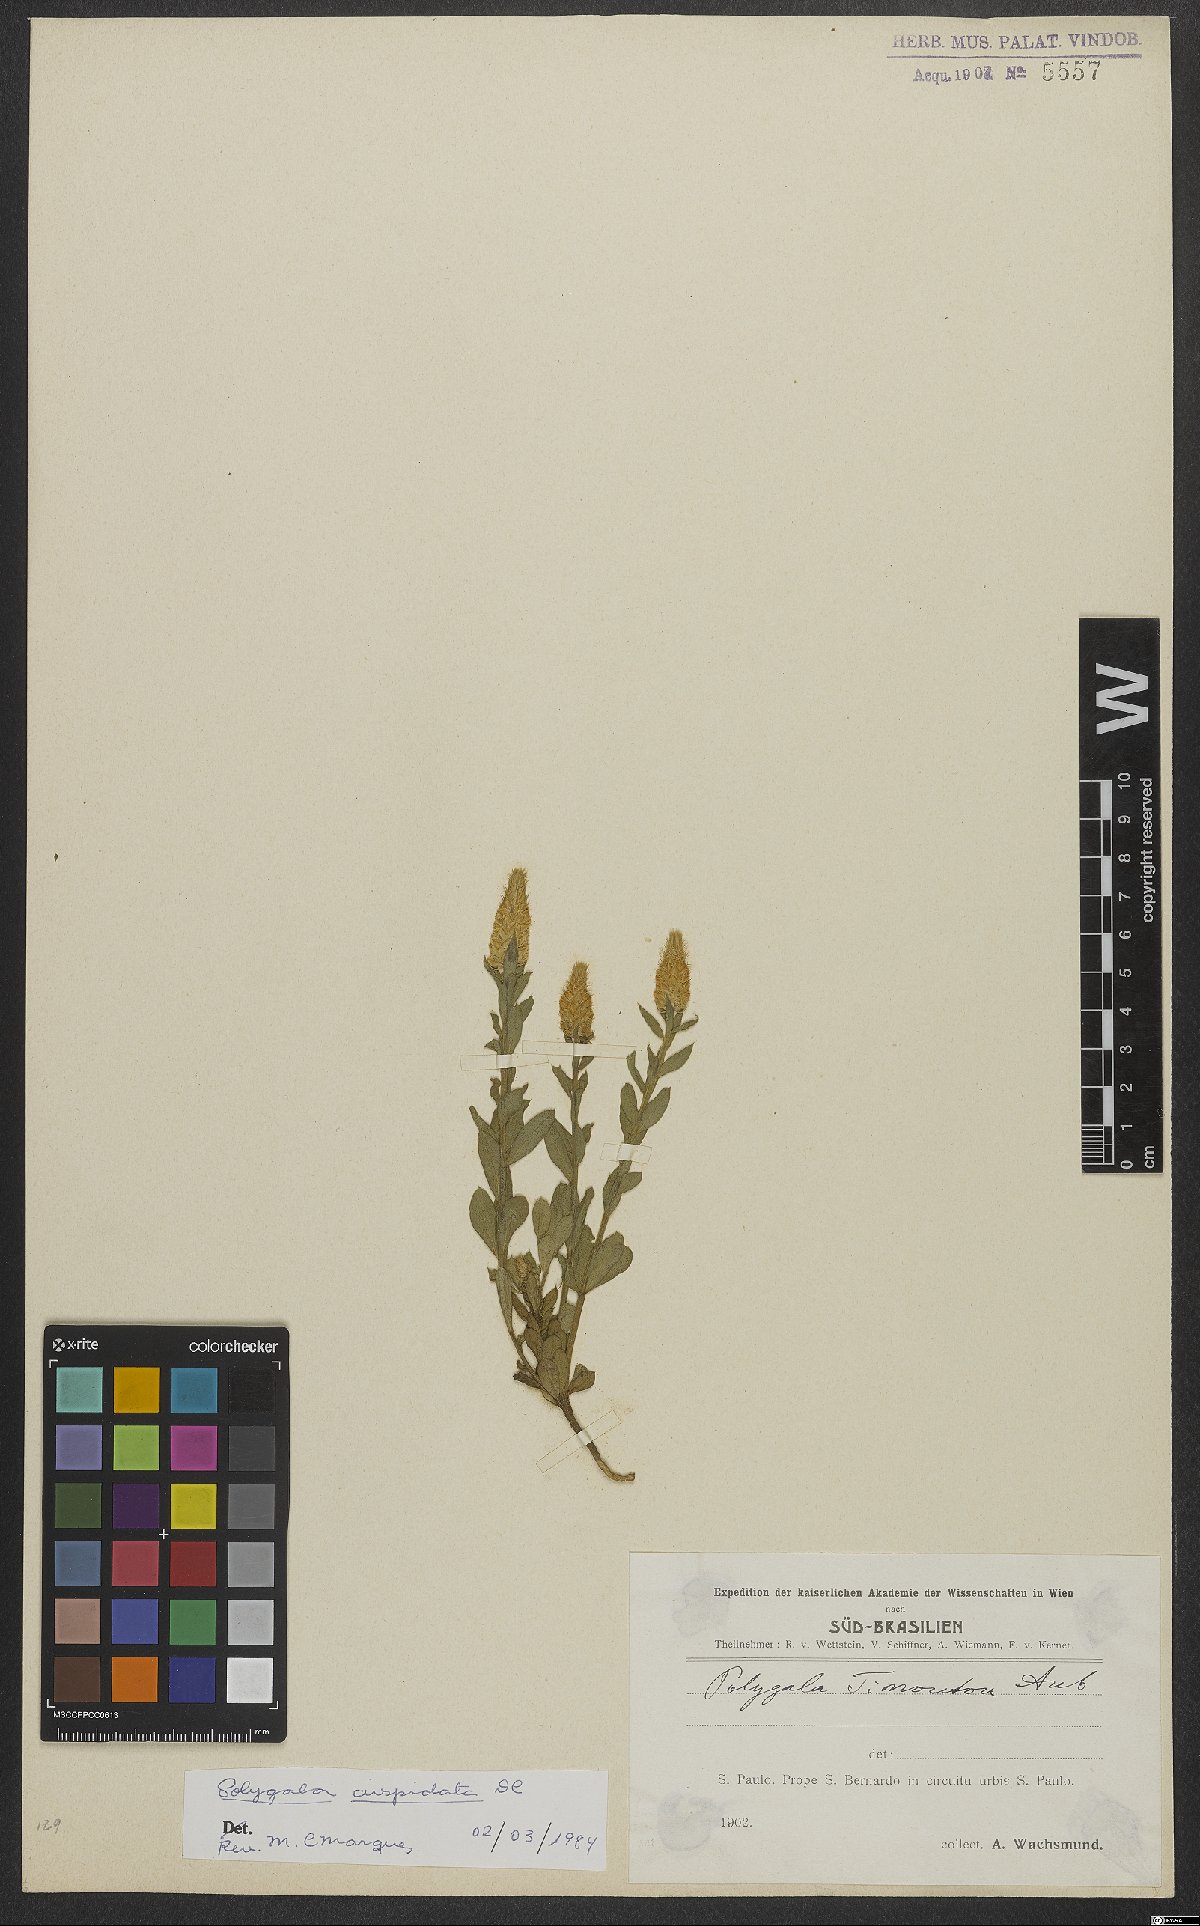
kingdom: Plantae
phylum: Tracheophyta
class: Magnoliopsida
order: Fabales
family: Polygalaceae
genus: Polygala
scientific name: Polygala cuspidata
